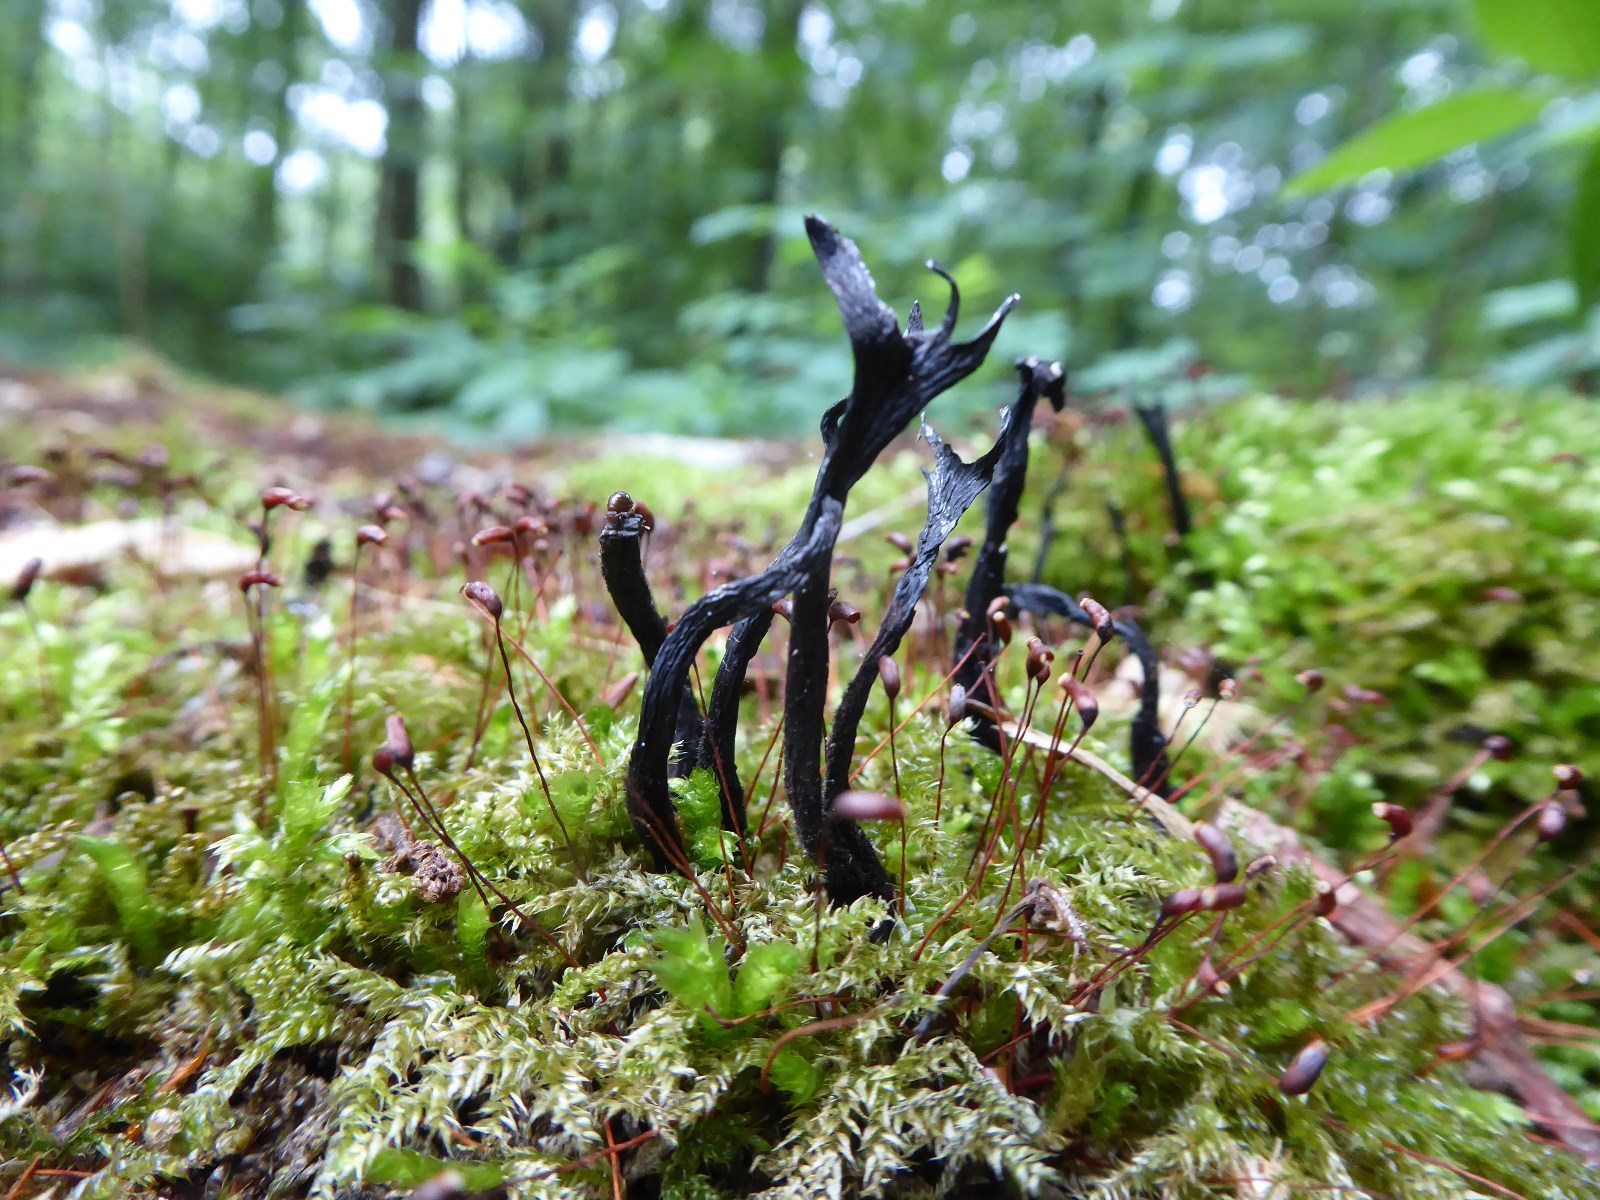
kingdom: Fungi
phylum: Ascomycota
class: Sordariomycetes
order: Xylariales
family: Xylariaceae
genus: Xylaria
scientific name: Xylaria hypoxylon
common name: grenet stødsvamp
